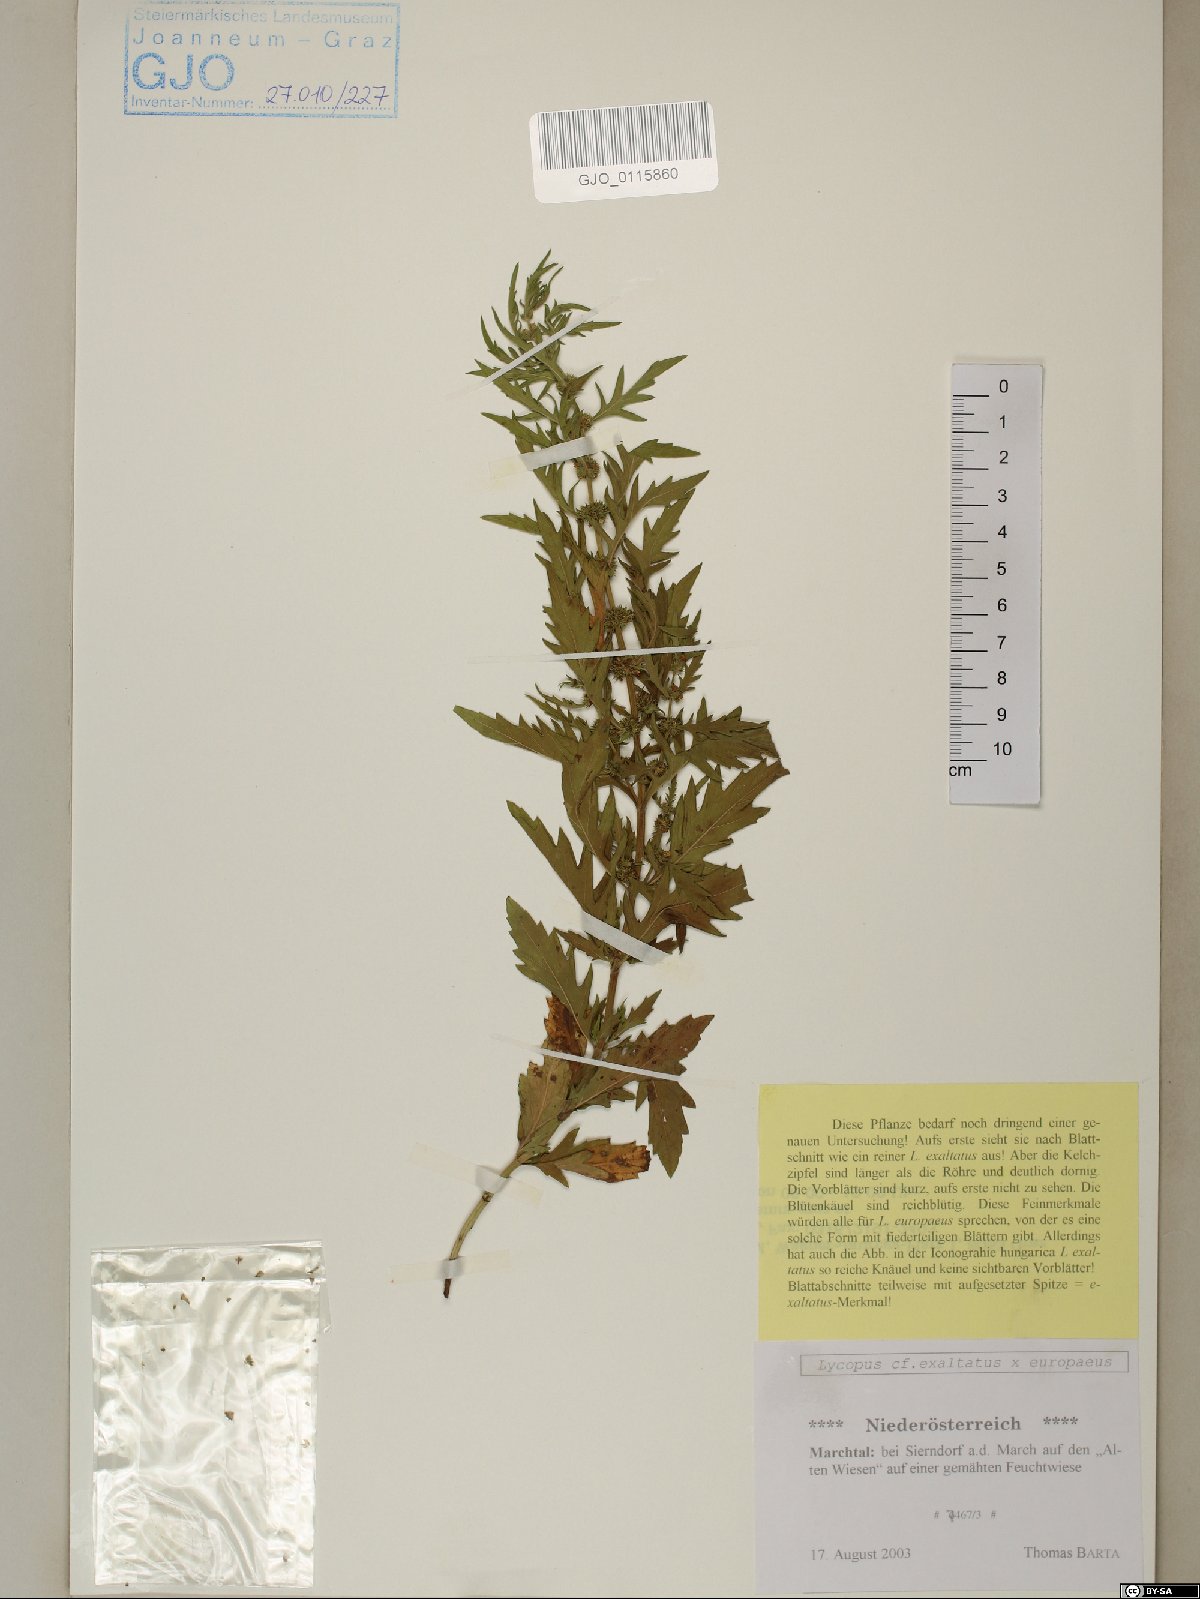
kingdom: Plantae
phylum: Tracheophyta
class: Magnoliopsida
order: Lamiales
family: Lamiaceae
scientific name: Lamiaceae
